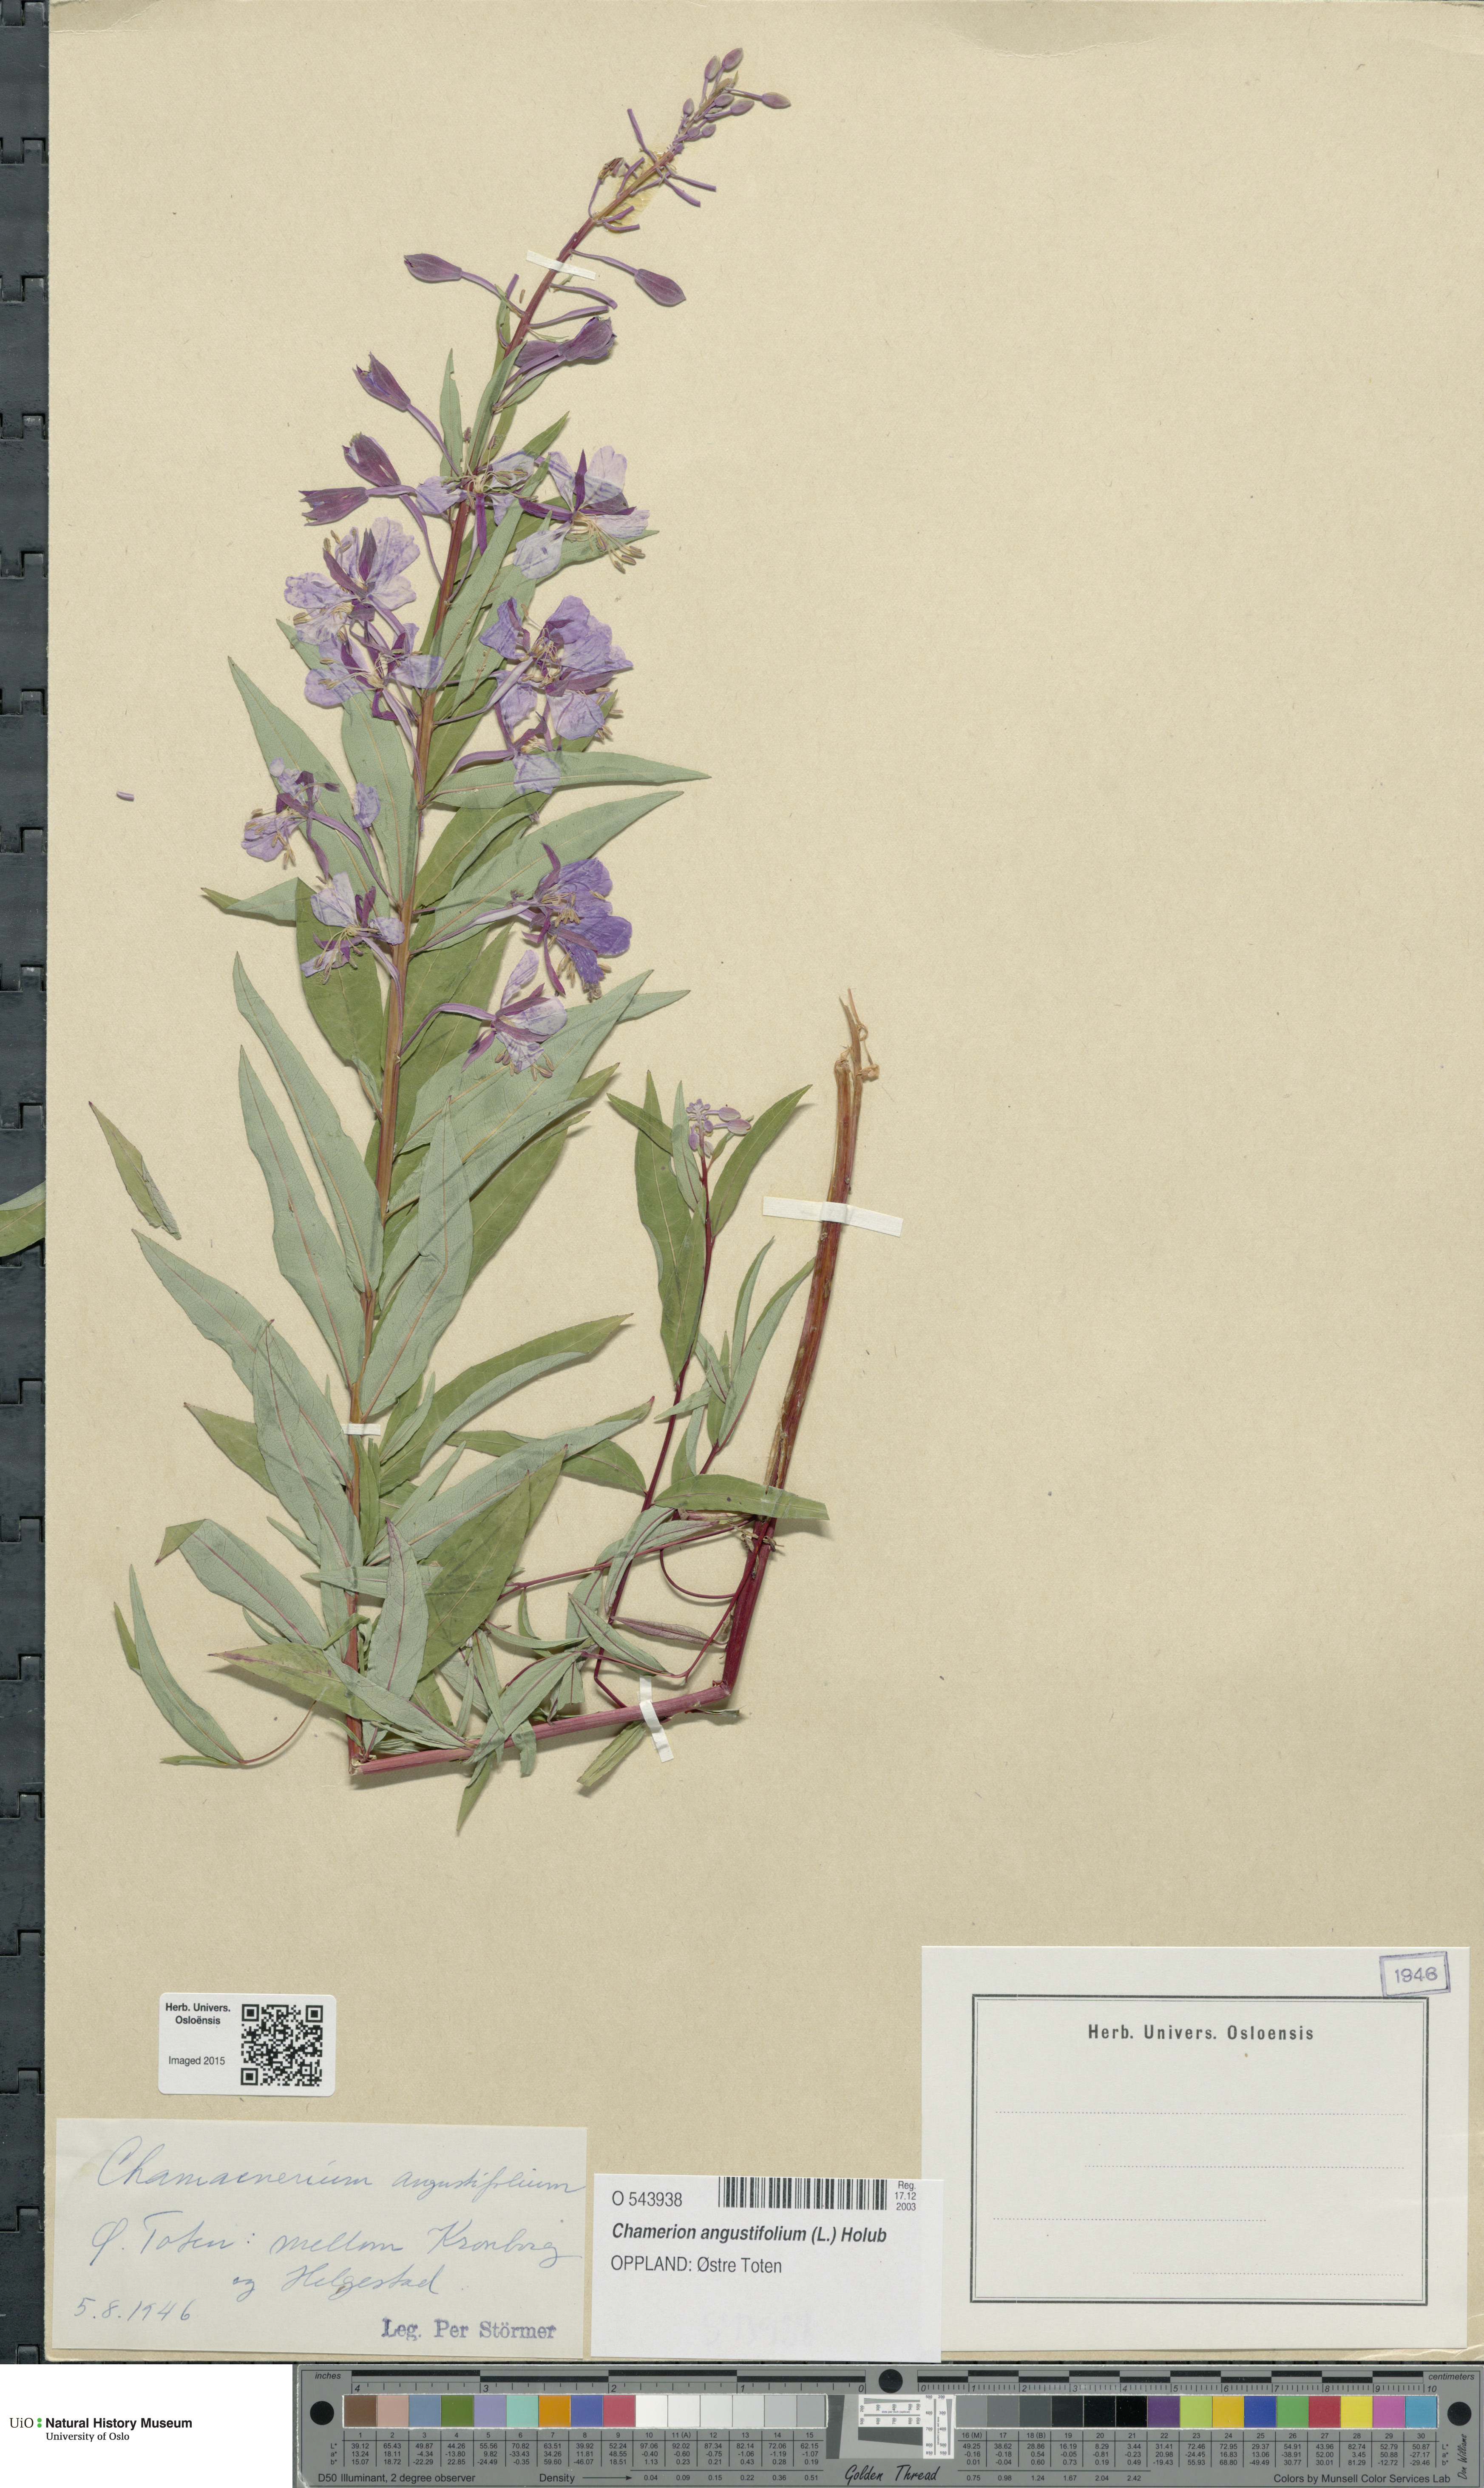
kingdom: Plantae
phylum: Tracheophyta
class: Magnoliopsida
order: Myrtales
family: Onagraceae
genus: Chamaenerion
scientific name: Chamaenerion angustifolium
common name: Fireweed
